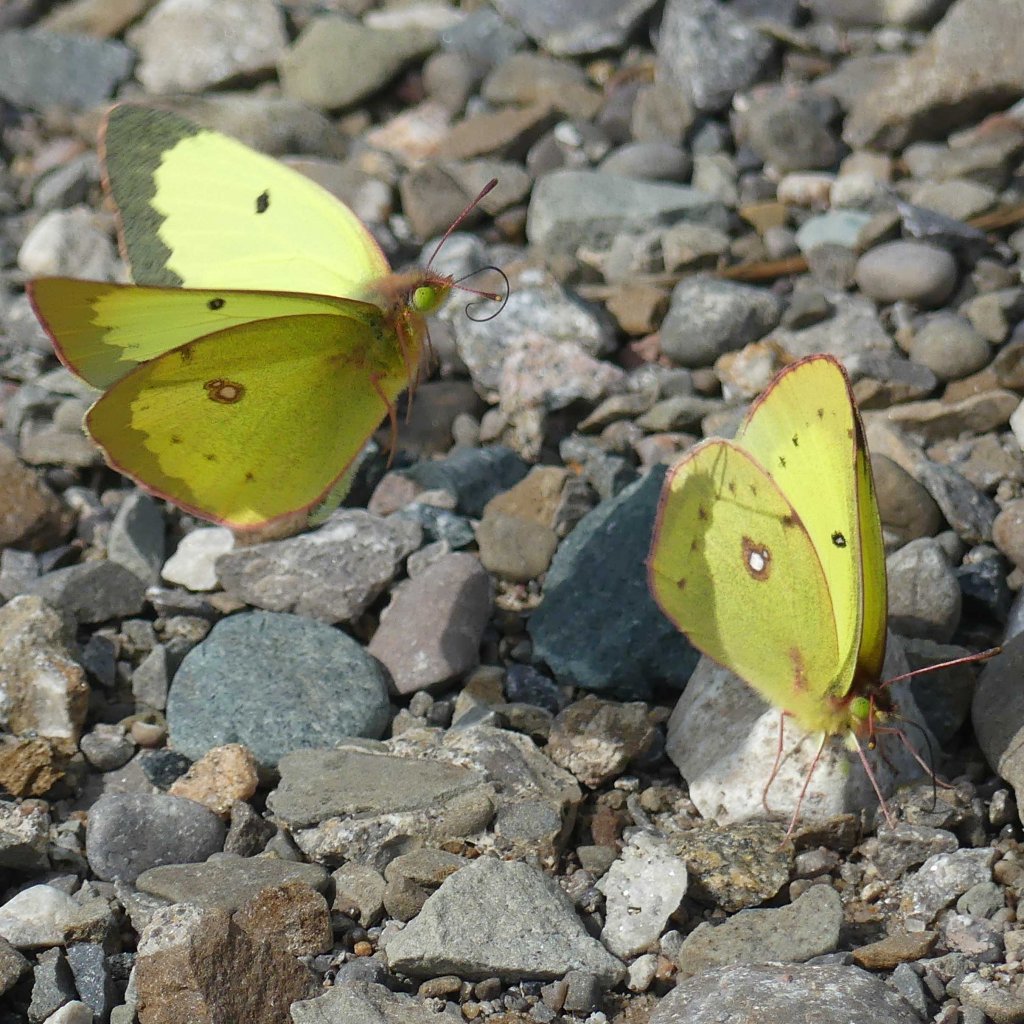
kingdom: Animalia
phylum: Arthropoda
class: Insecta
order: Lepidoptera
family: Pieridae
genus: Colias
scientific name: Colias philodice
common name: Clouded Sulphur
